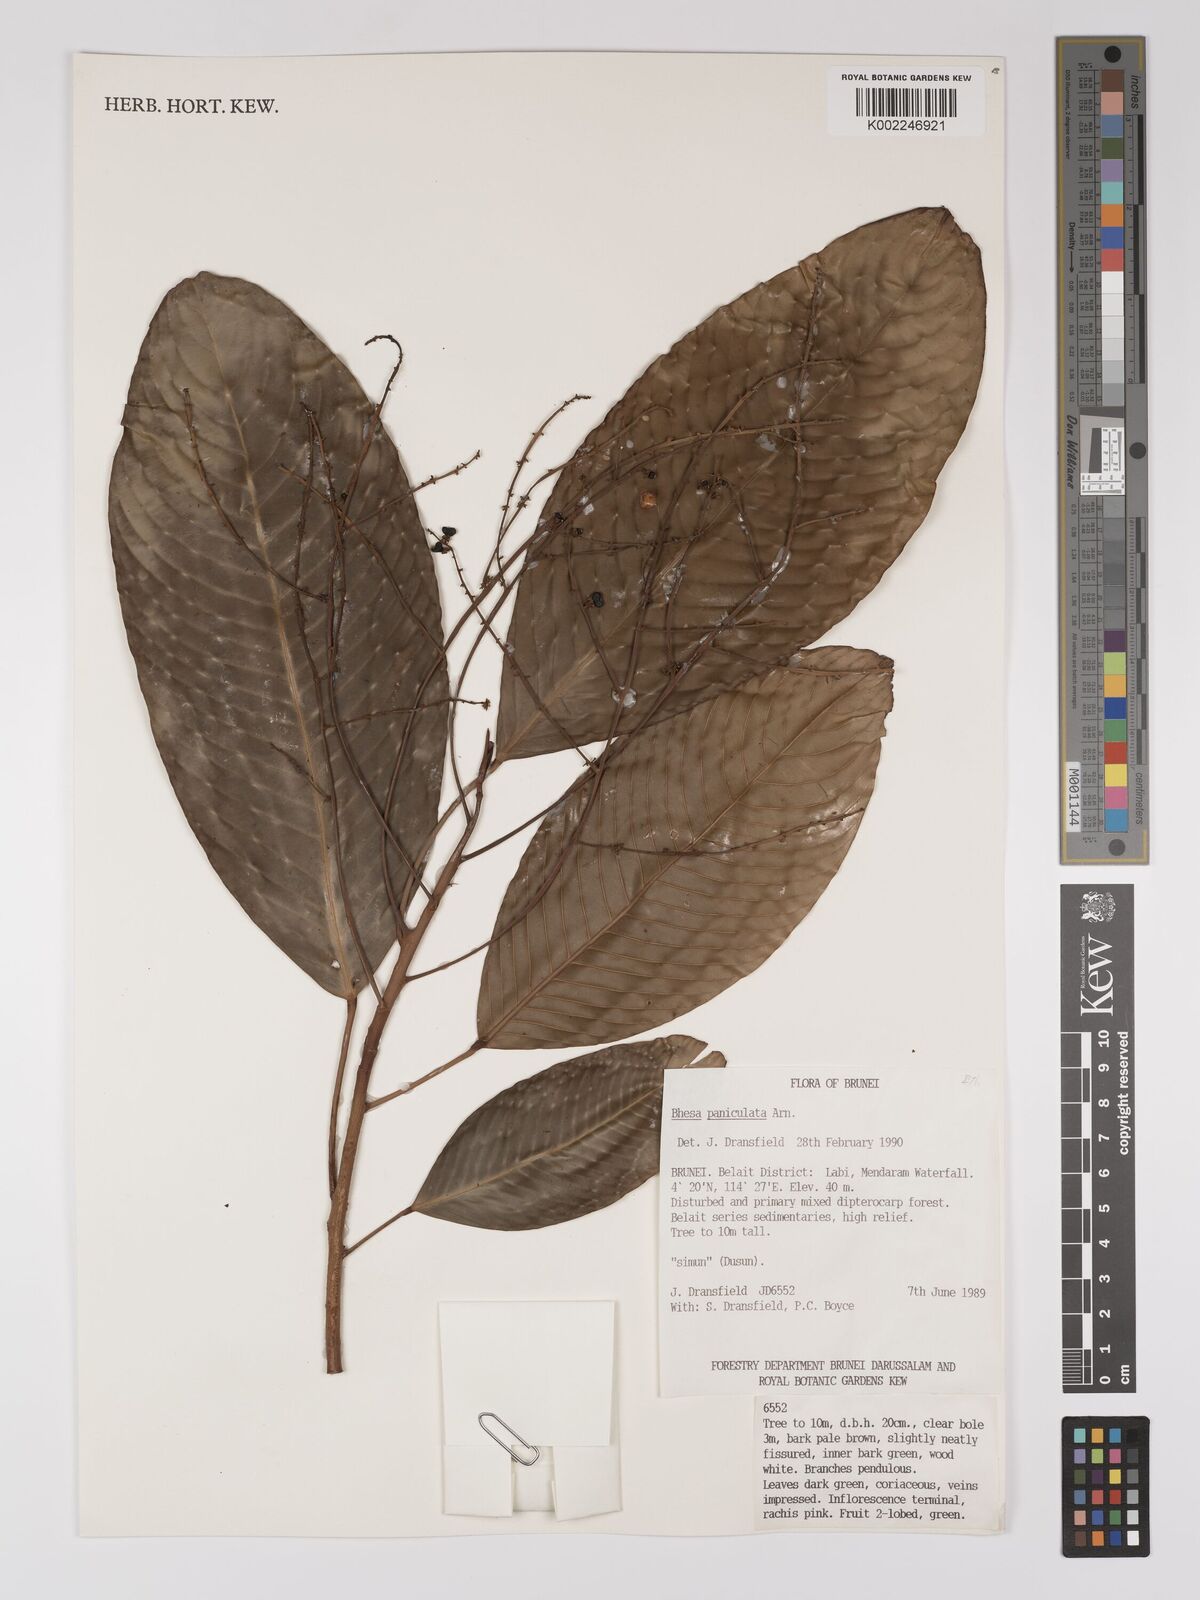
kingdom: Plantae
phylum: Tracheophyta
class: Magnoliopsida
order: Malpighiales
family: Centroplacaceae
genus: Bhesa
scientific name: Bhesa paniculata
